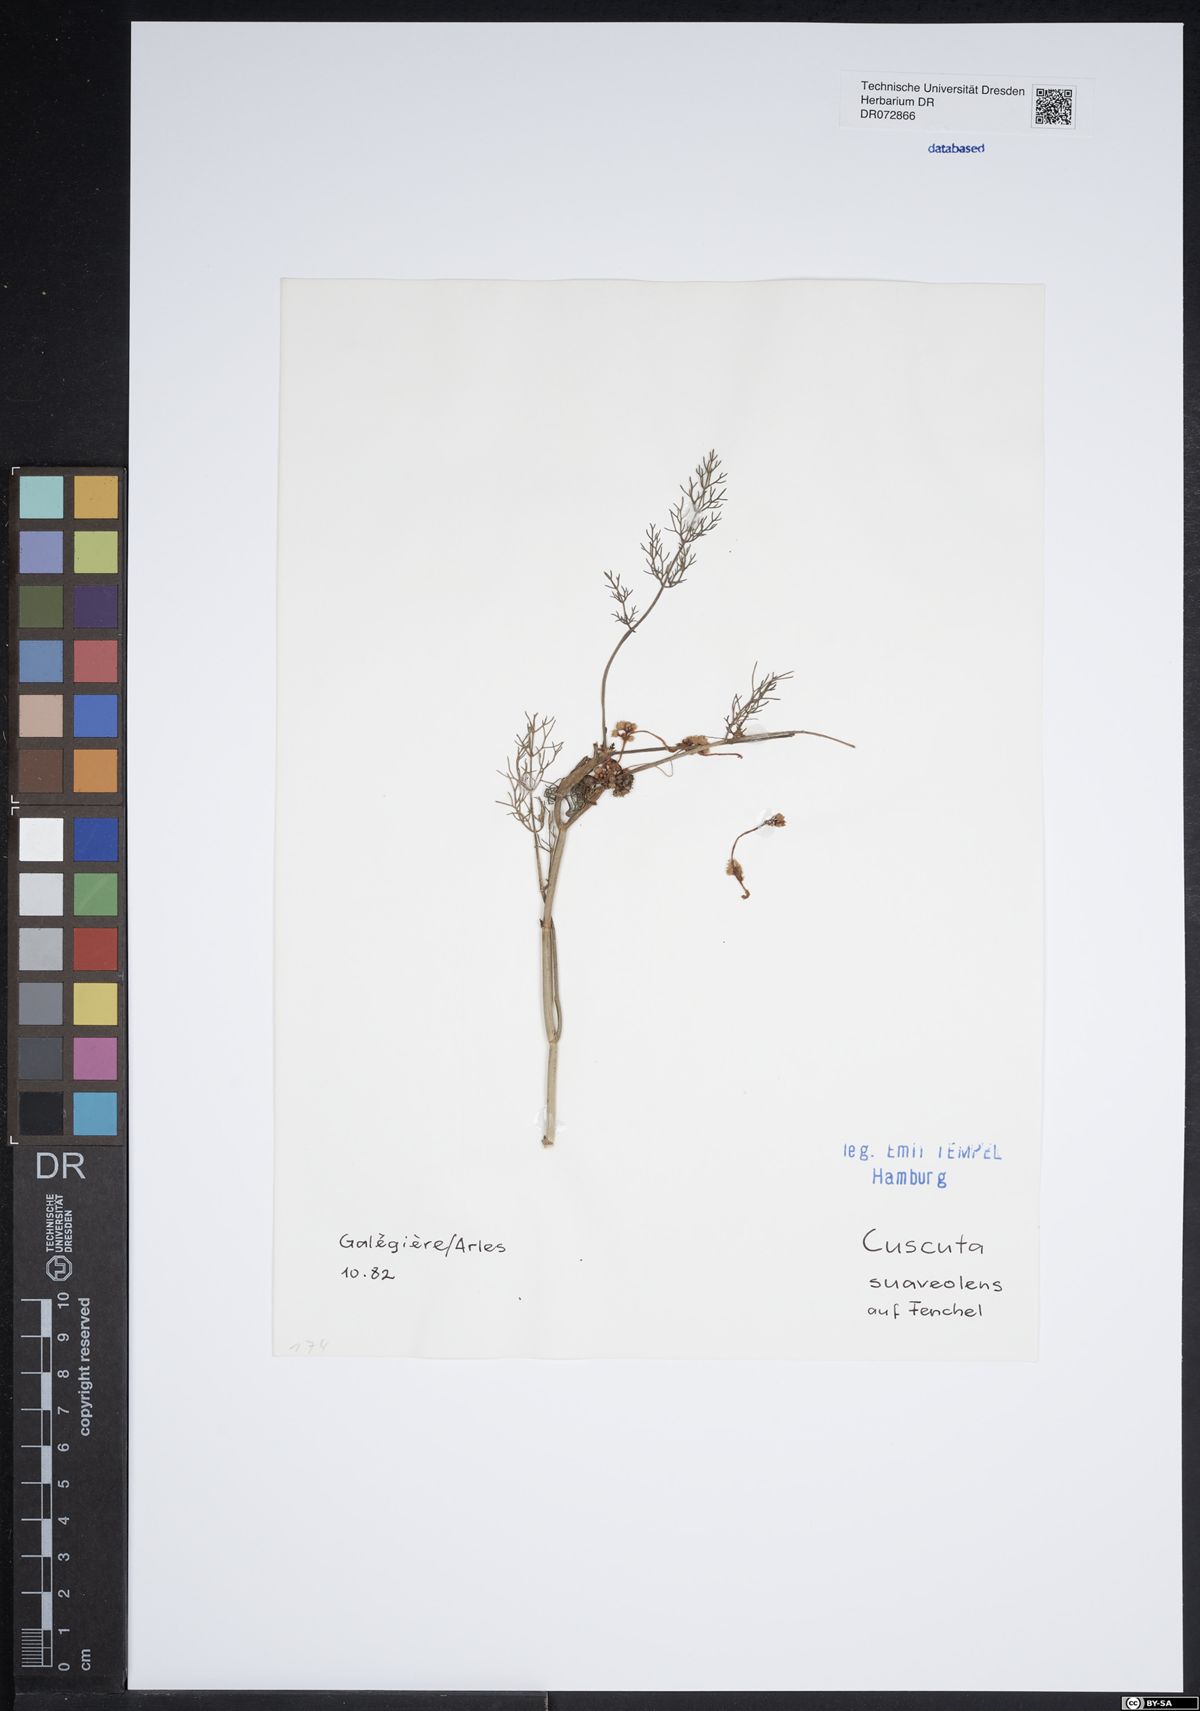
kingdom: Plantae
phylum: Tracheophyta
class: Magnoliopsida
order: Solanales
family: Convolvulaceae
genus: Cuscuta
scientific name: Cuscuta suaveolens
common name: Fringed dodder
